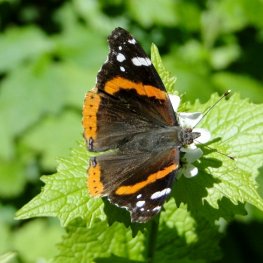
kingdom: Animalia
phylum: Arthropoda
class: Insecta
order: Lepidoptera
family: Nymphalidae
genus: Vanessa
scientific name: Vanessa atalanta
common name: Red Admiral
